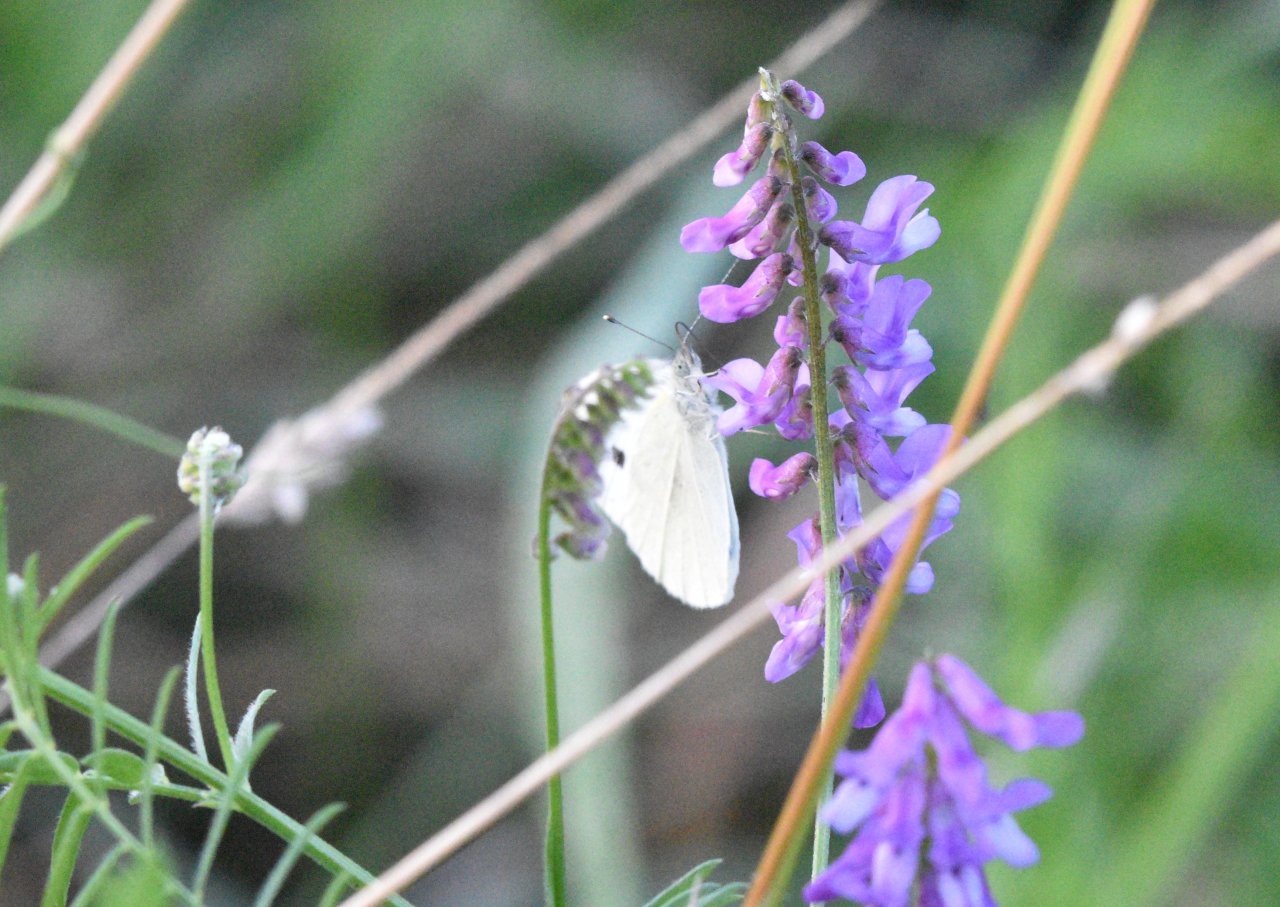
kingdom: Animalia
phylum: Arthropoda
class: Insecta
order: Lepidoptera
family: Pieridae
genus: Pieris
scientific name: Pieris rapae
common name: Cabbage White
